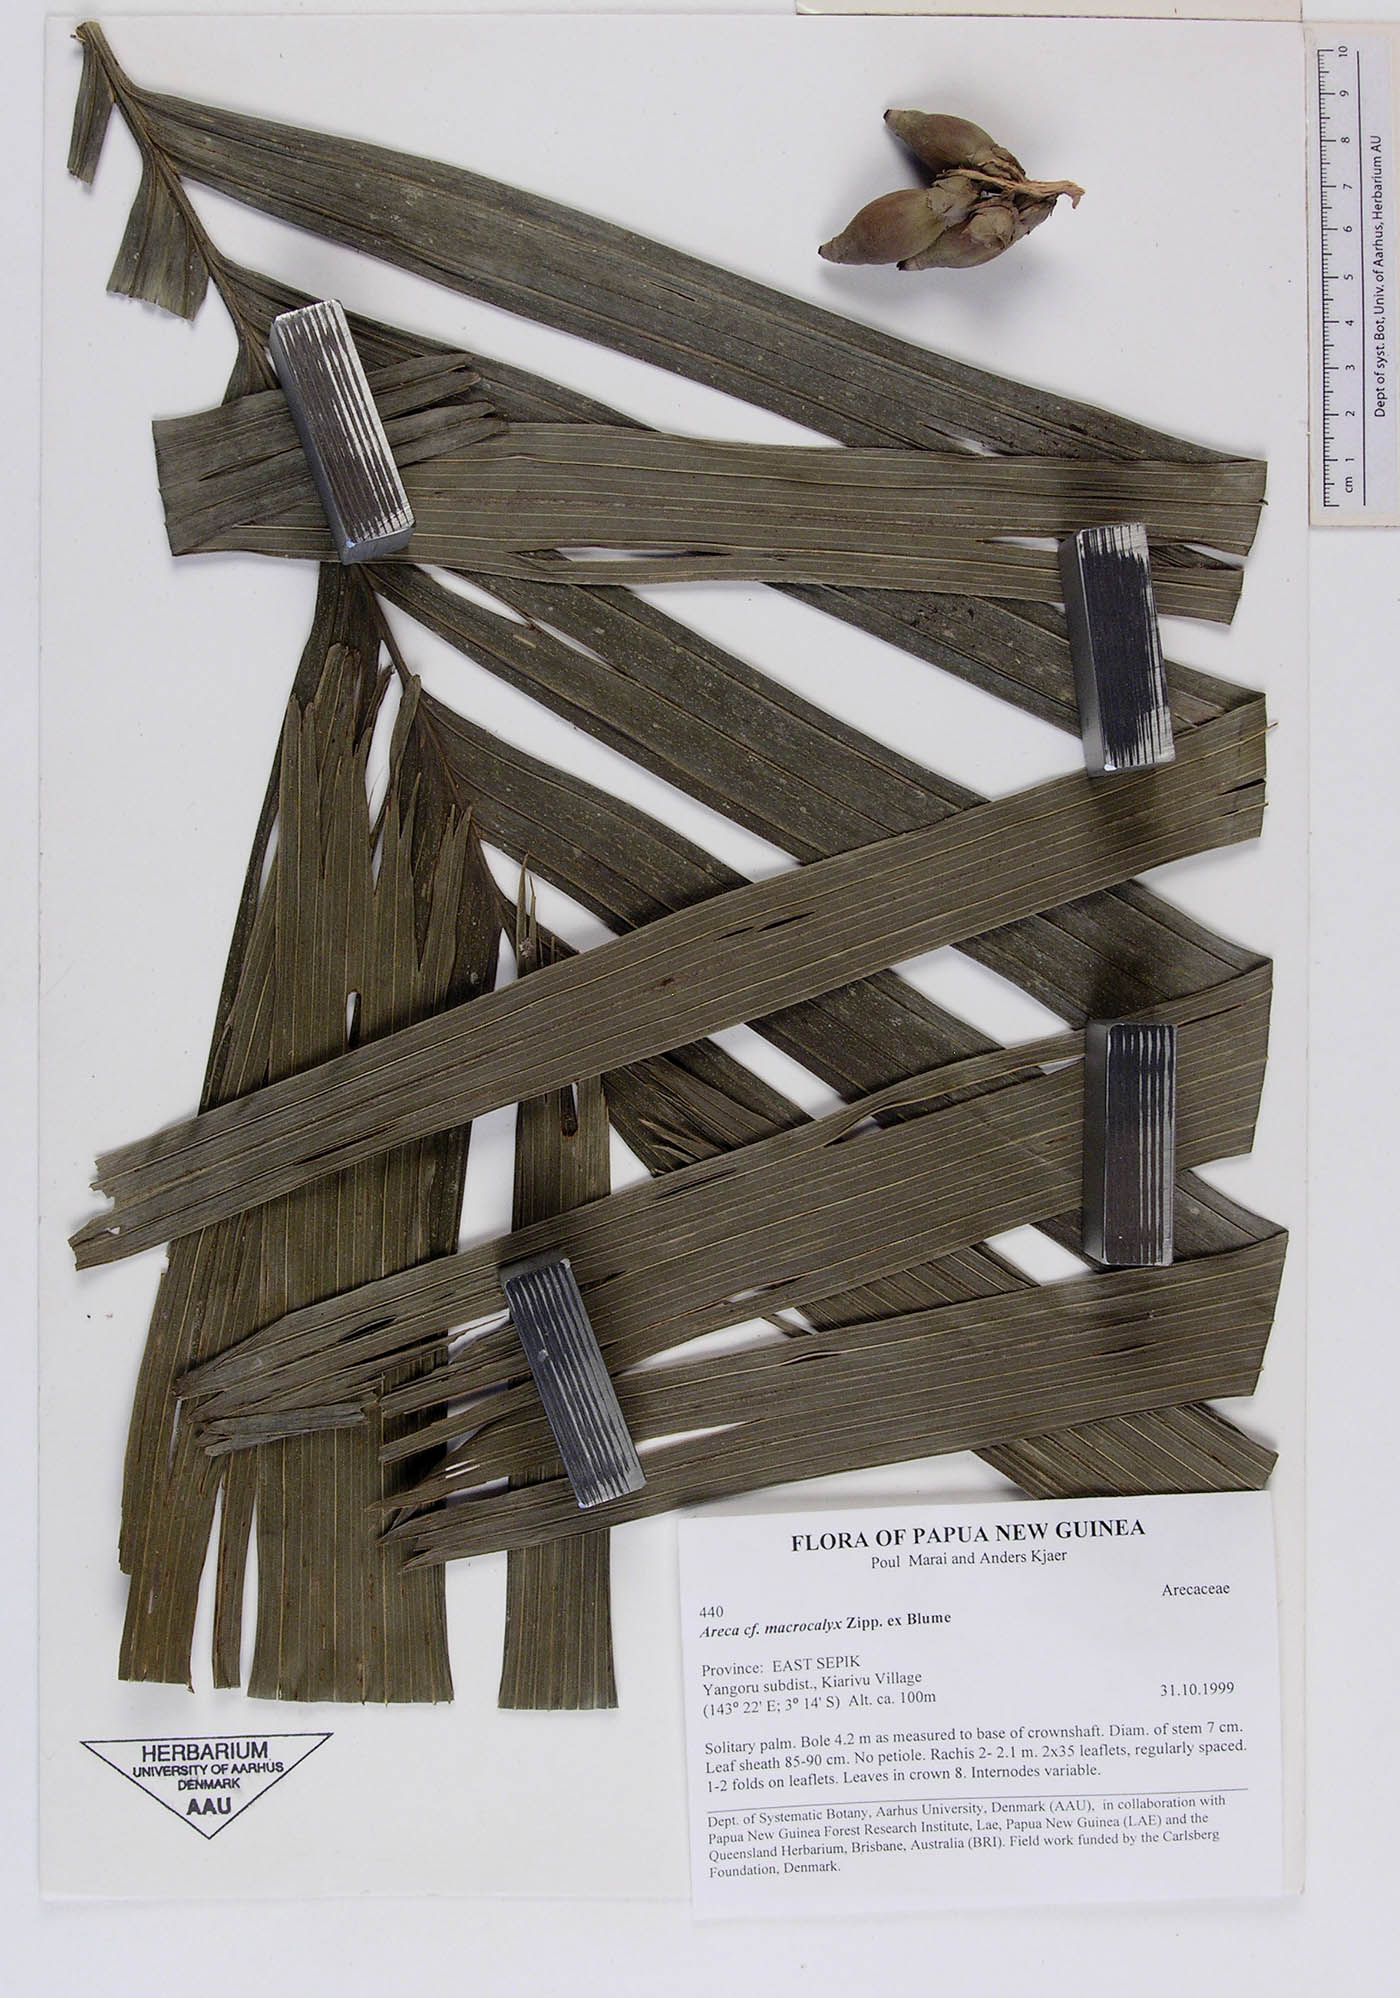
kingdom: Plantae
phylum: Tracheophyta
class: Liliopsida
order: Arecales
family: Arecaceae
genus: Areca
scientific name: Areca macrocalyx
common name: Highland betel-nut palm
